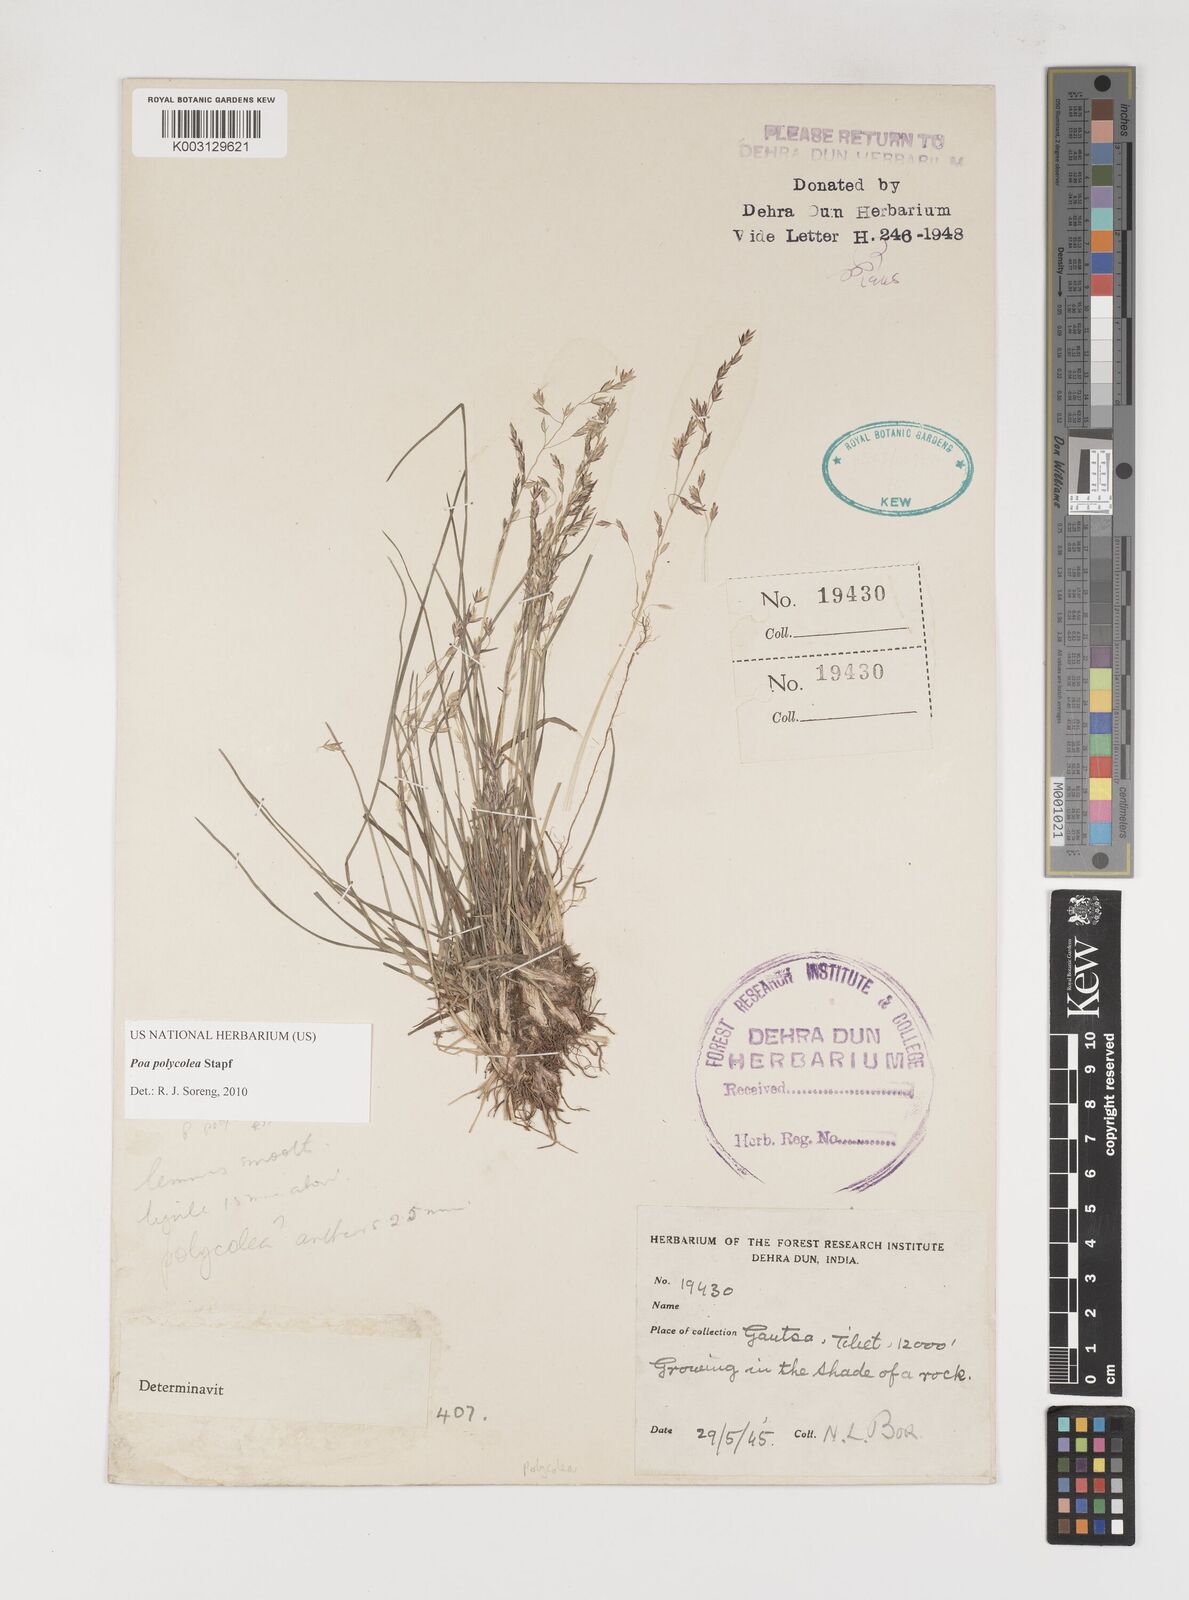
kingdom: Plantae
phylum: Tracheophyta
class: Liliopsida
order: Poales
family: Poaceae
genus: Poa
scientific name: Poa polycolea
